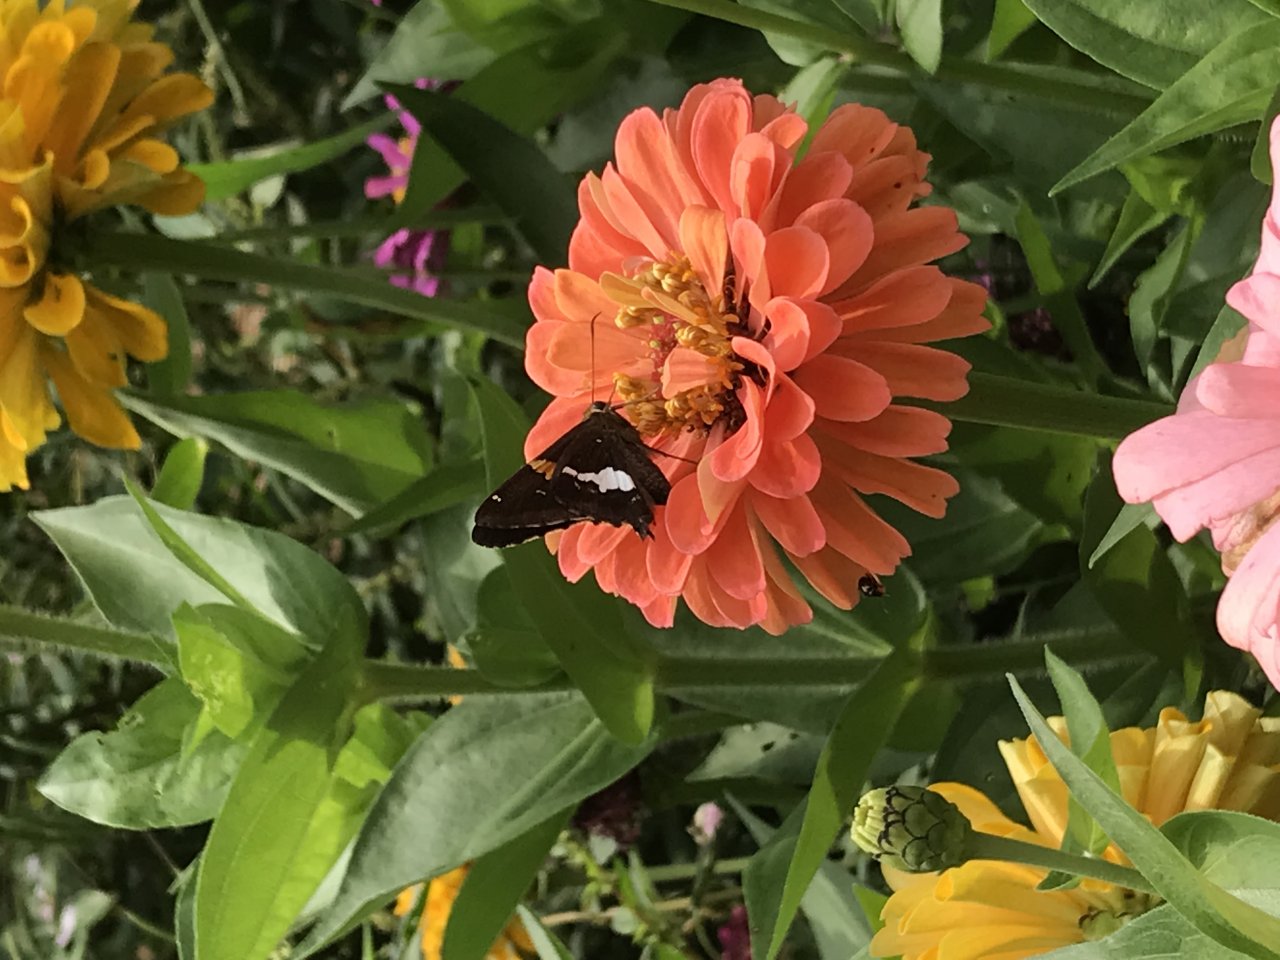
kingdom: Animalia
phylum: Arthropoda
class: Insecta
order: Lepidoptera
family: Hesperiidae
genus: Epargyreus
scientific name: Epargyreus clarus
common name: Silver-spotted Skipper
